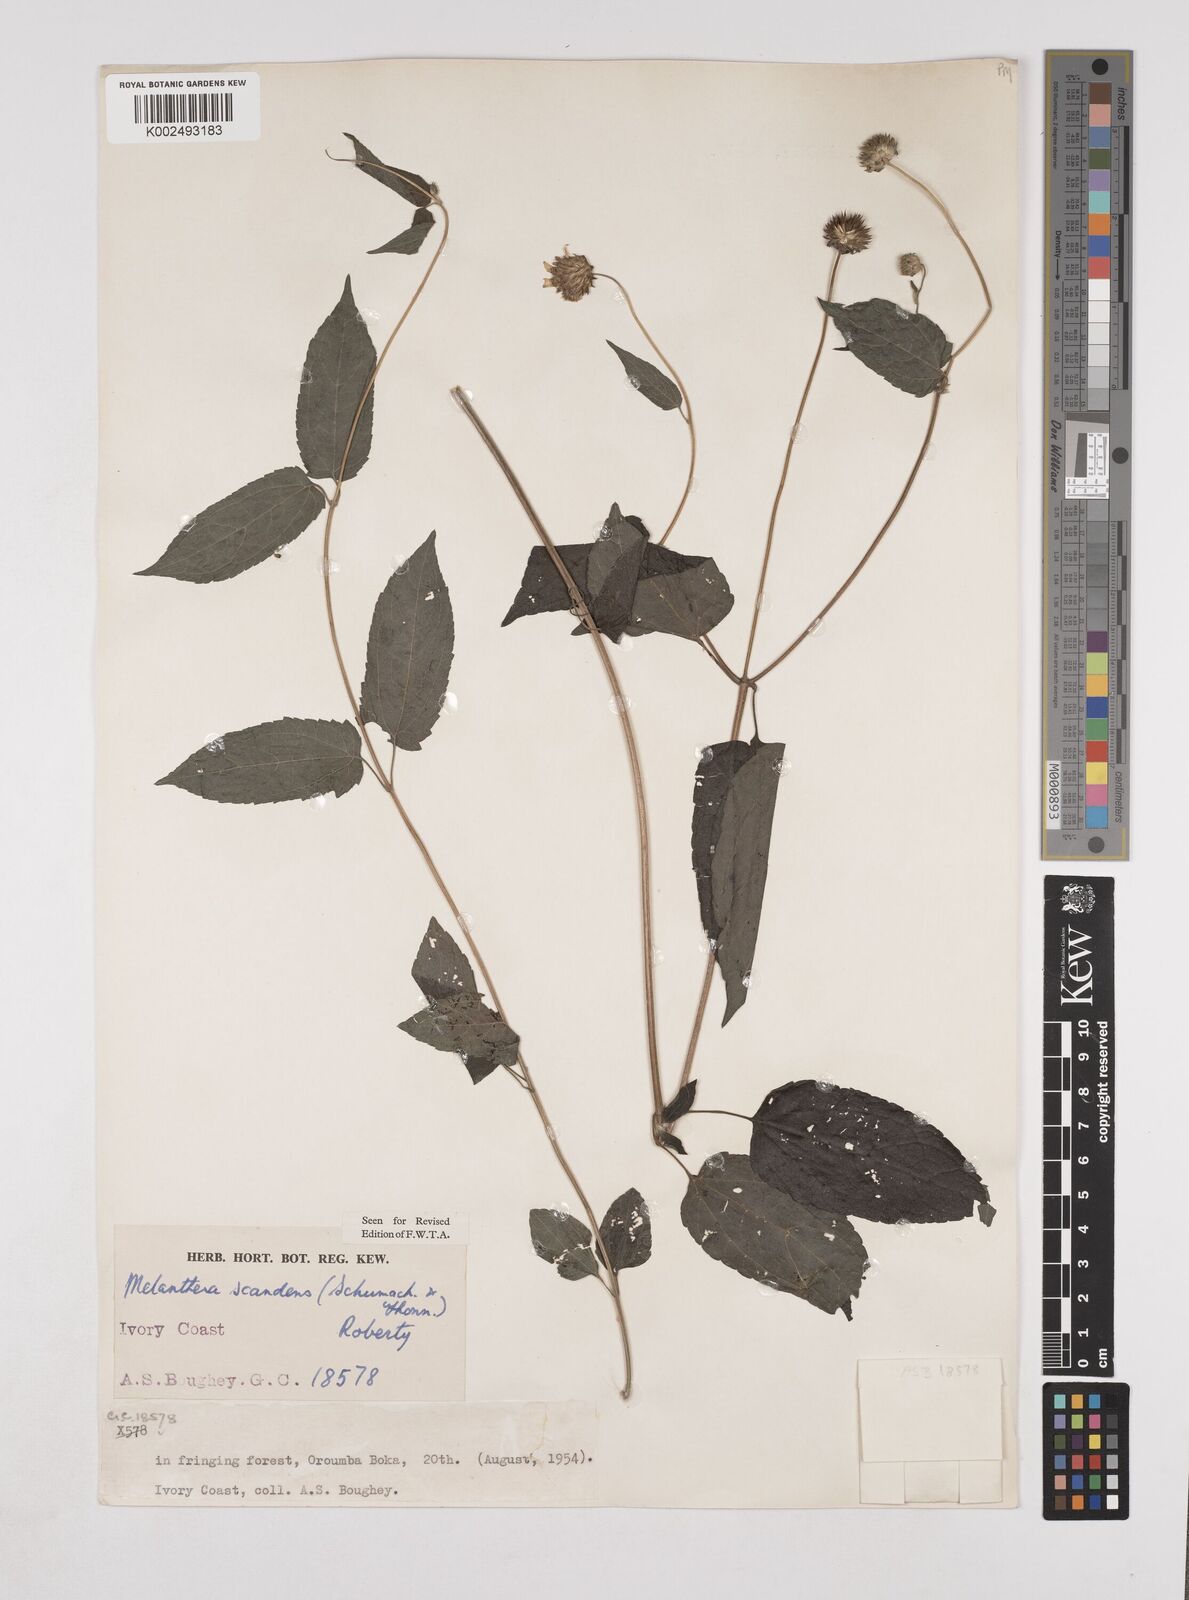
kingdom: Plantae
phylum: Tracheophyta
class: Magnoliopsida
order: Asterales
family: Asteraceae
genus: Lipotriche
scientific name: Lipotriche scandens
